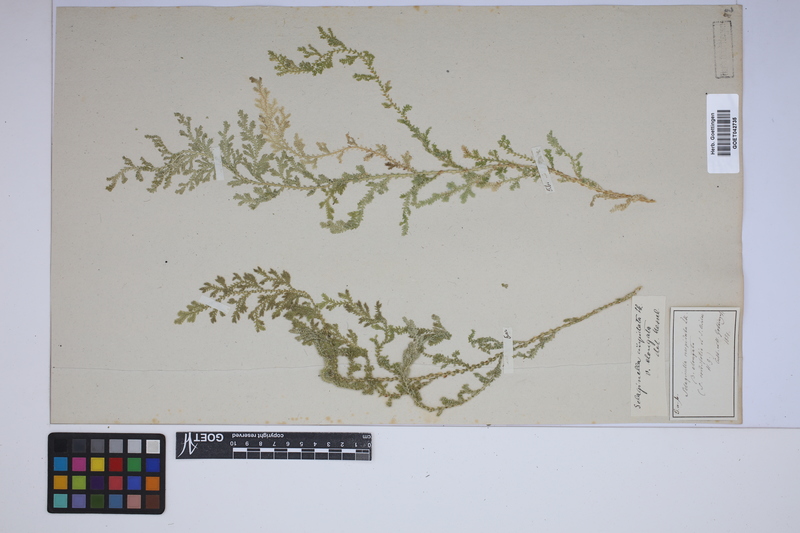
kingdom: Plantae
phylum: Tracheophyta
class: Lycopodiopsida
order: Selaginellales
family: Selaginellaceae
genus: Selaginella
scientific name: Selaginella pallescens
